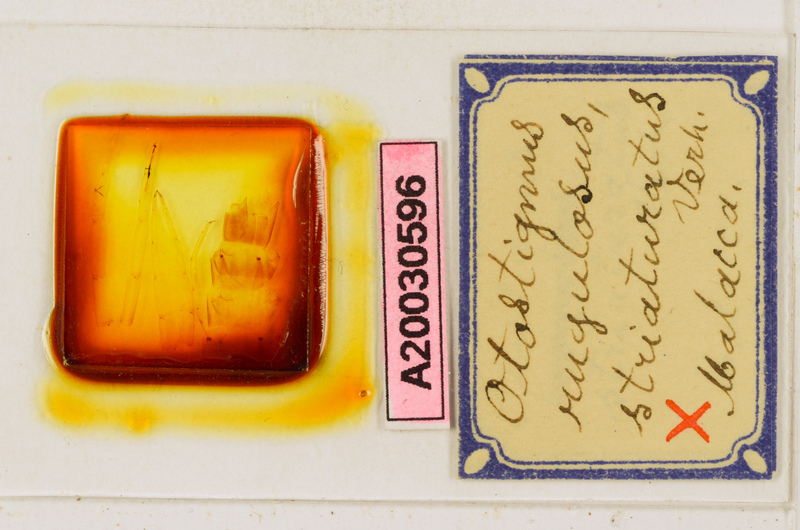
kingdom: Animalia
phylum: Arthropoda
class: Chilopoda
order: Scolopendromorpha
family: Scolopendridae
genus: Otostigmus
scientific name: Otostigmus rugulosus
